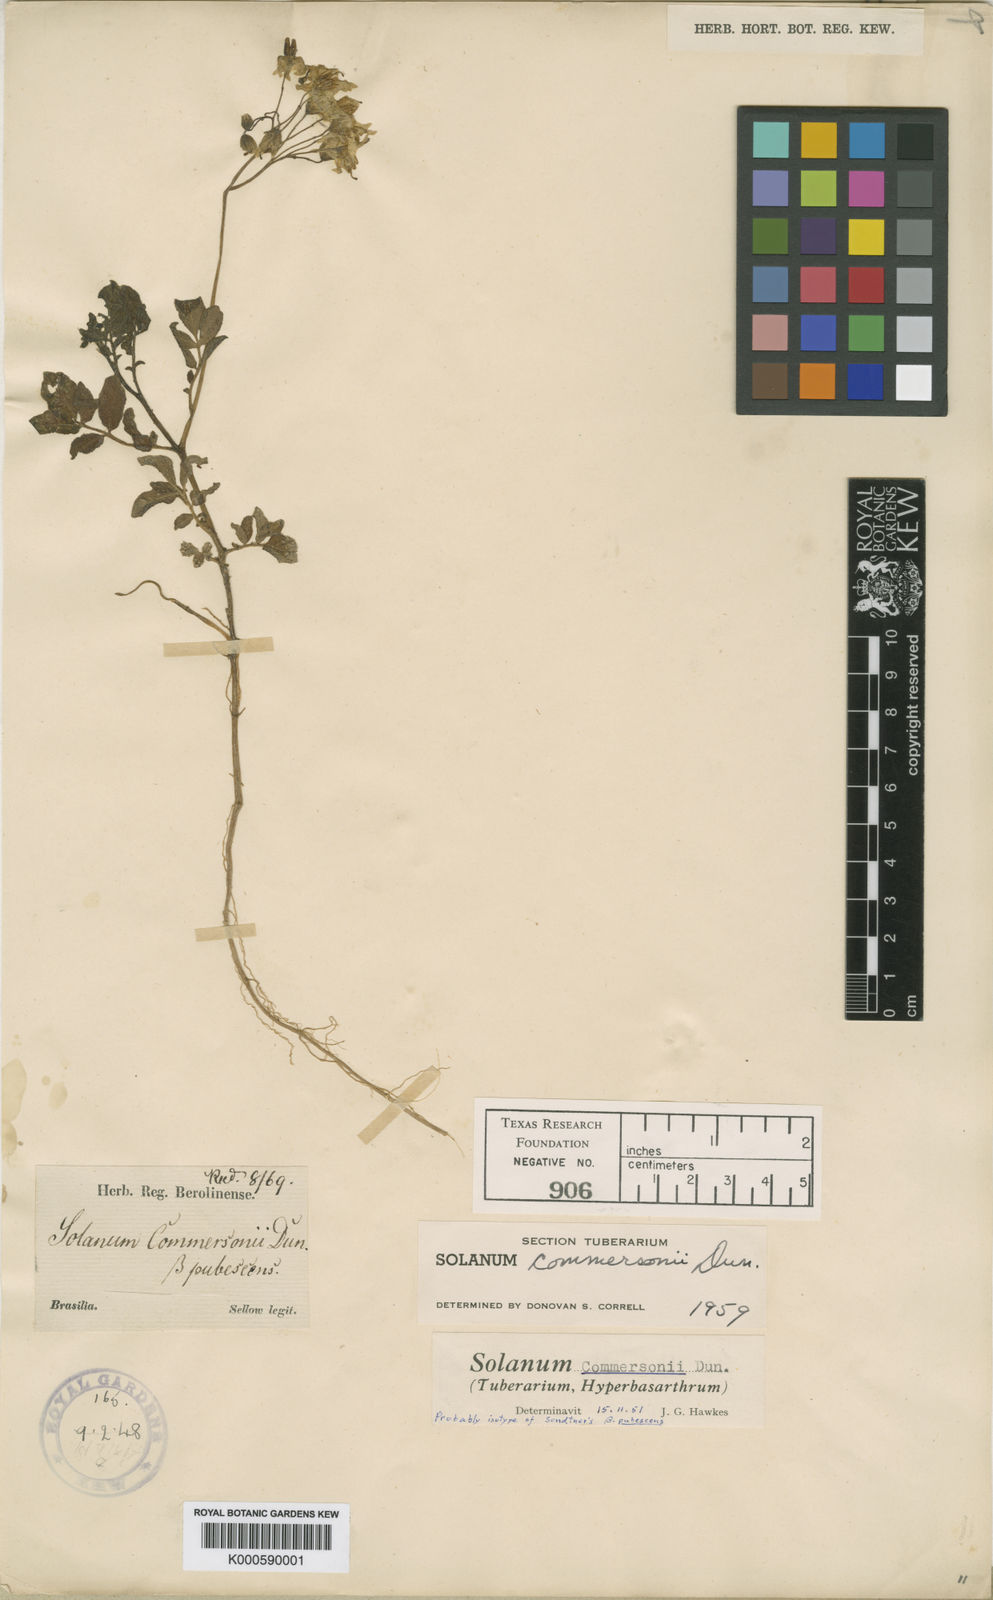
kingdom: Plantae
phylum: Tracheophyta
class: Magnoliopsida
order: Solanales
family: Solanaceae
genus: Solanum
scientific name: Solanum
